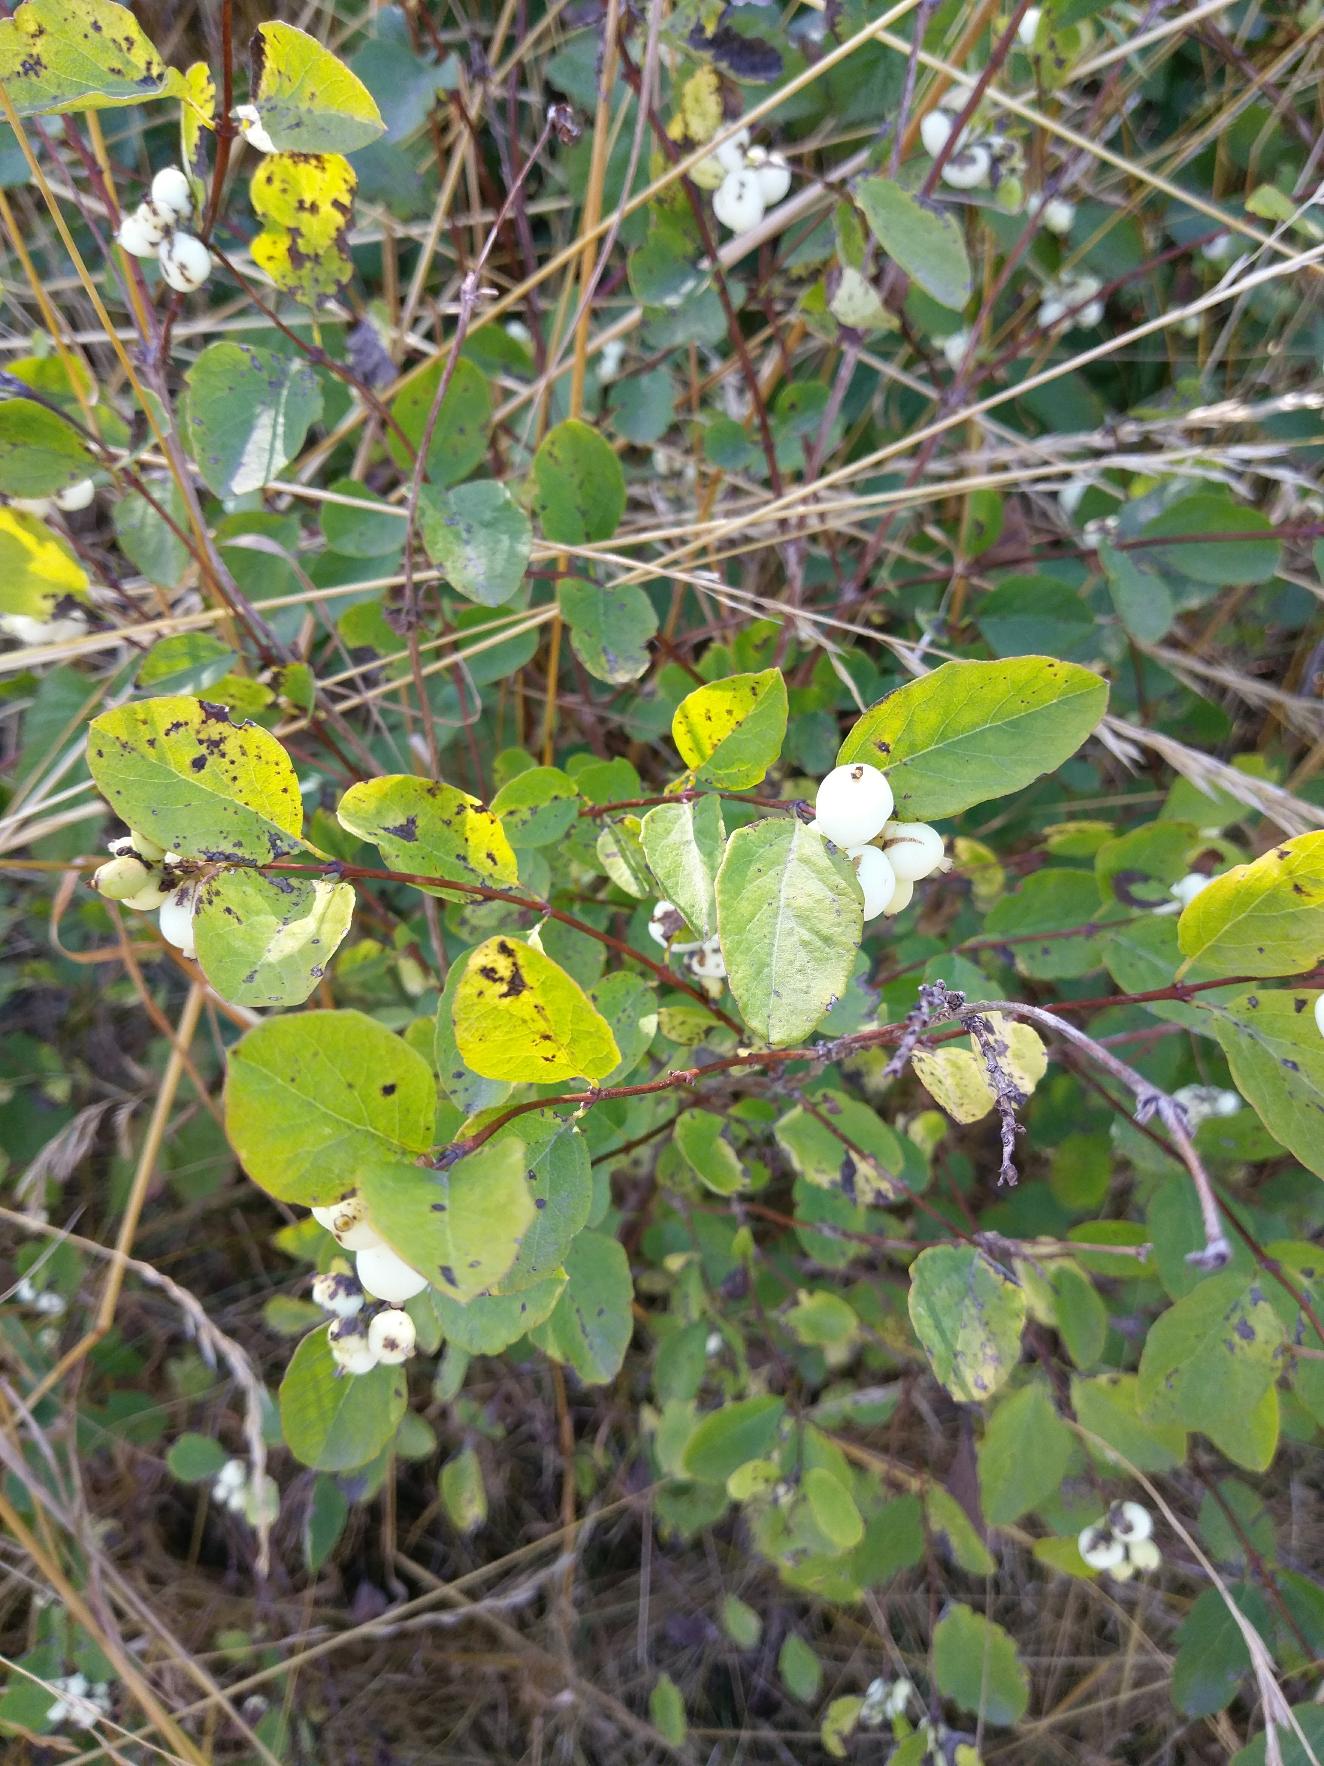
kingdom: Plantae
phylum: Tracheophyta
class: Magnoliopsida
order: Dipsacales
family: Caprifoliaceae
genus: Symphoricarpos
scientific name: Symphoricarpos albus
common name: Almindelig snebær
